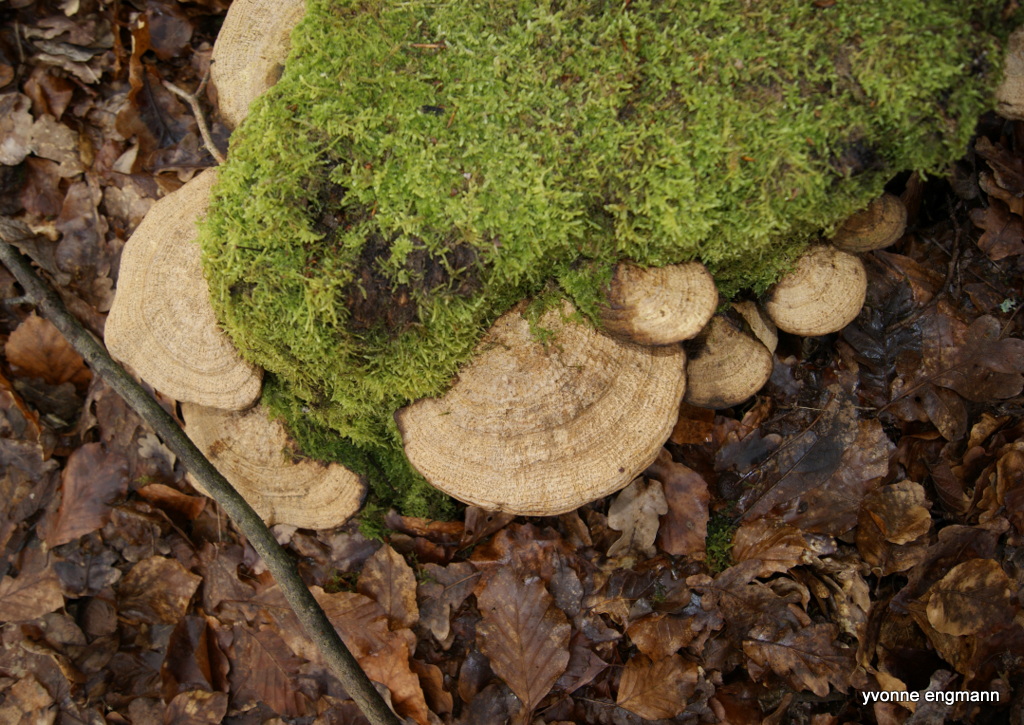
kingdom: Fungi
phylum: Basidiomycota
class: Agaricomycetes
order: Polyporales
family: Fomitopsidaceae
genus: Daedalea
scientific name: Daedalea quercina
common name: ege-labyrintsvamp
